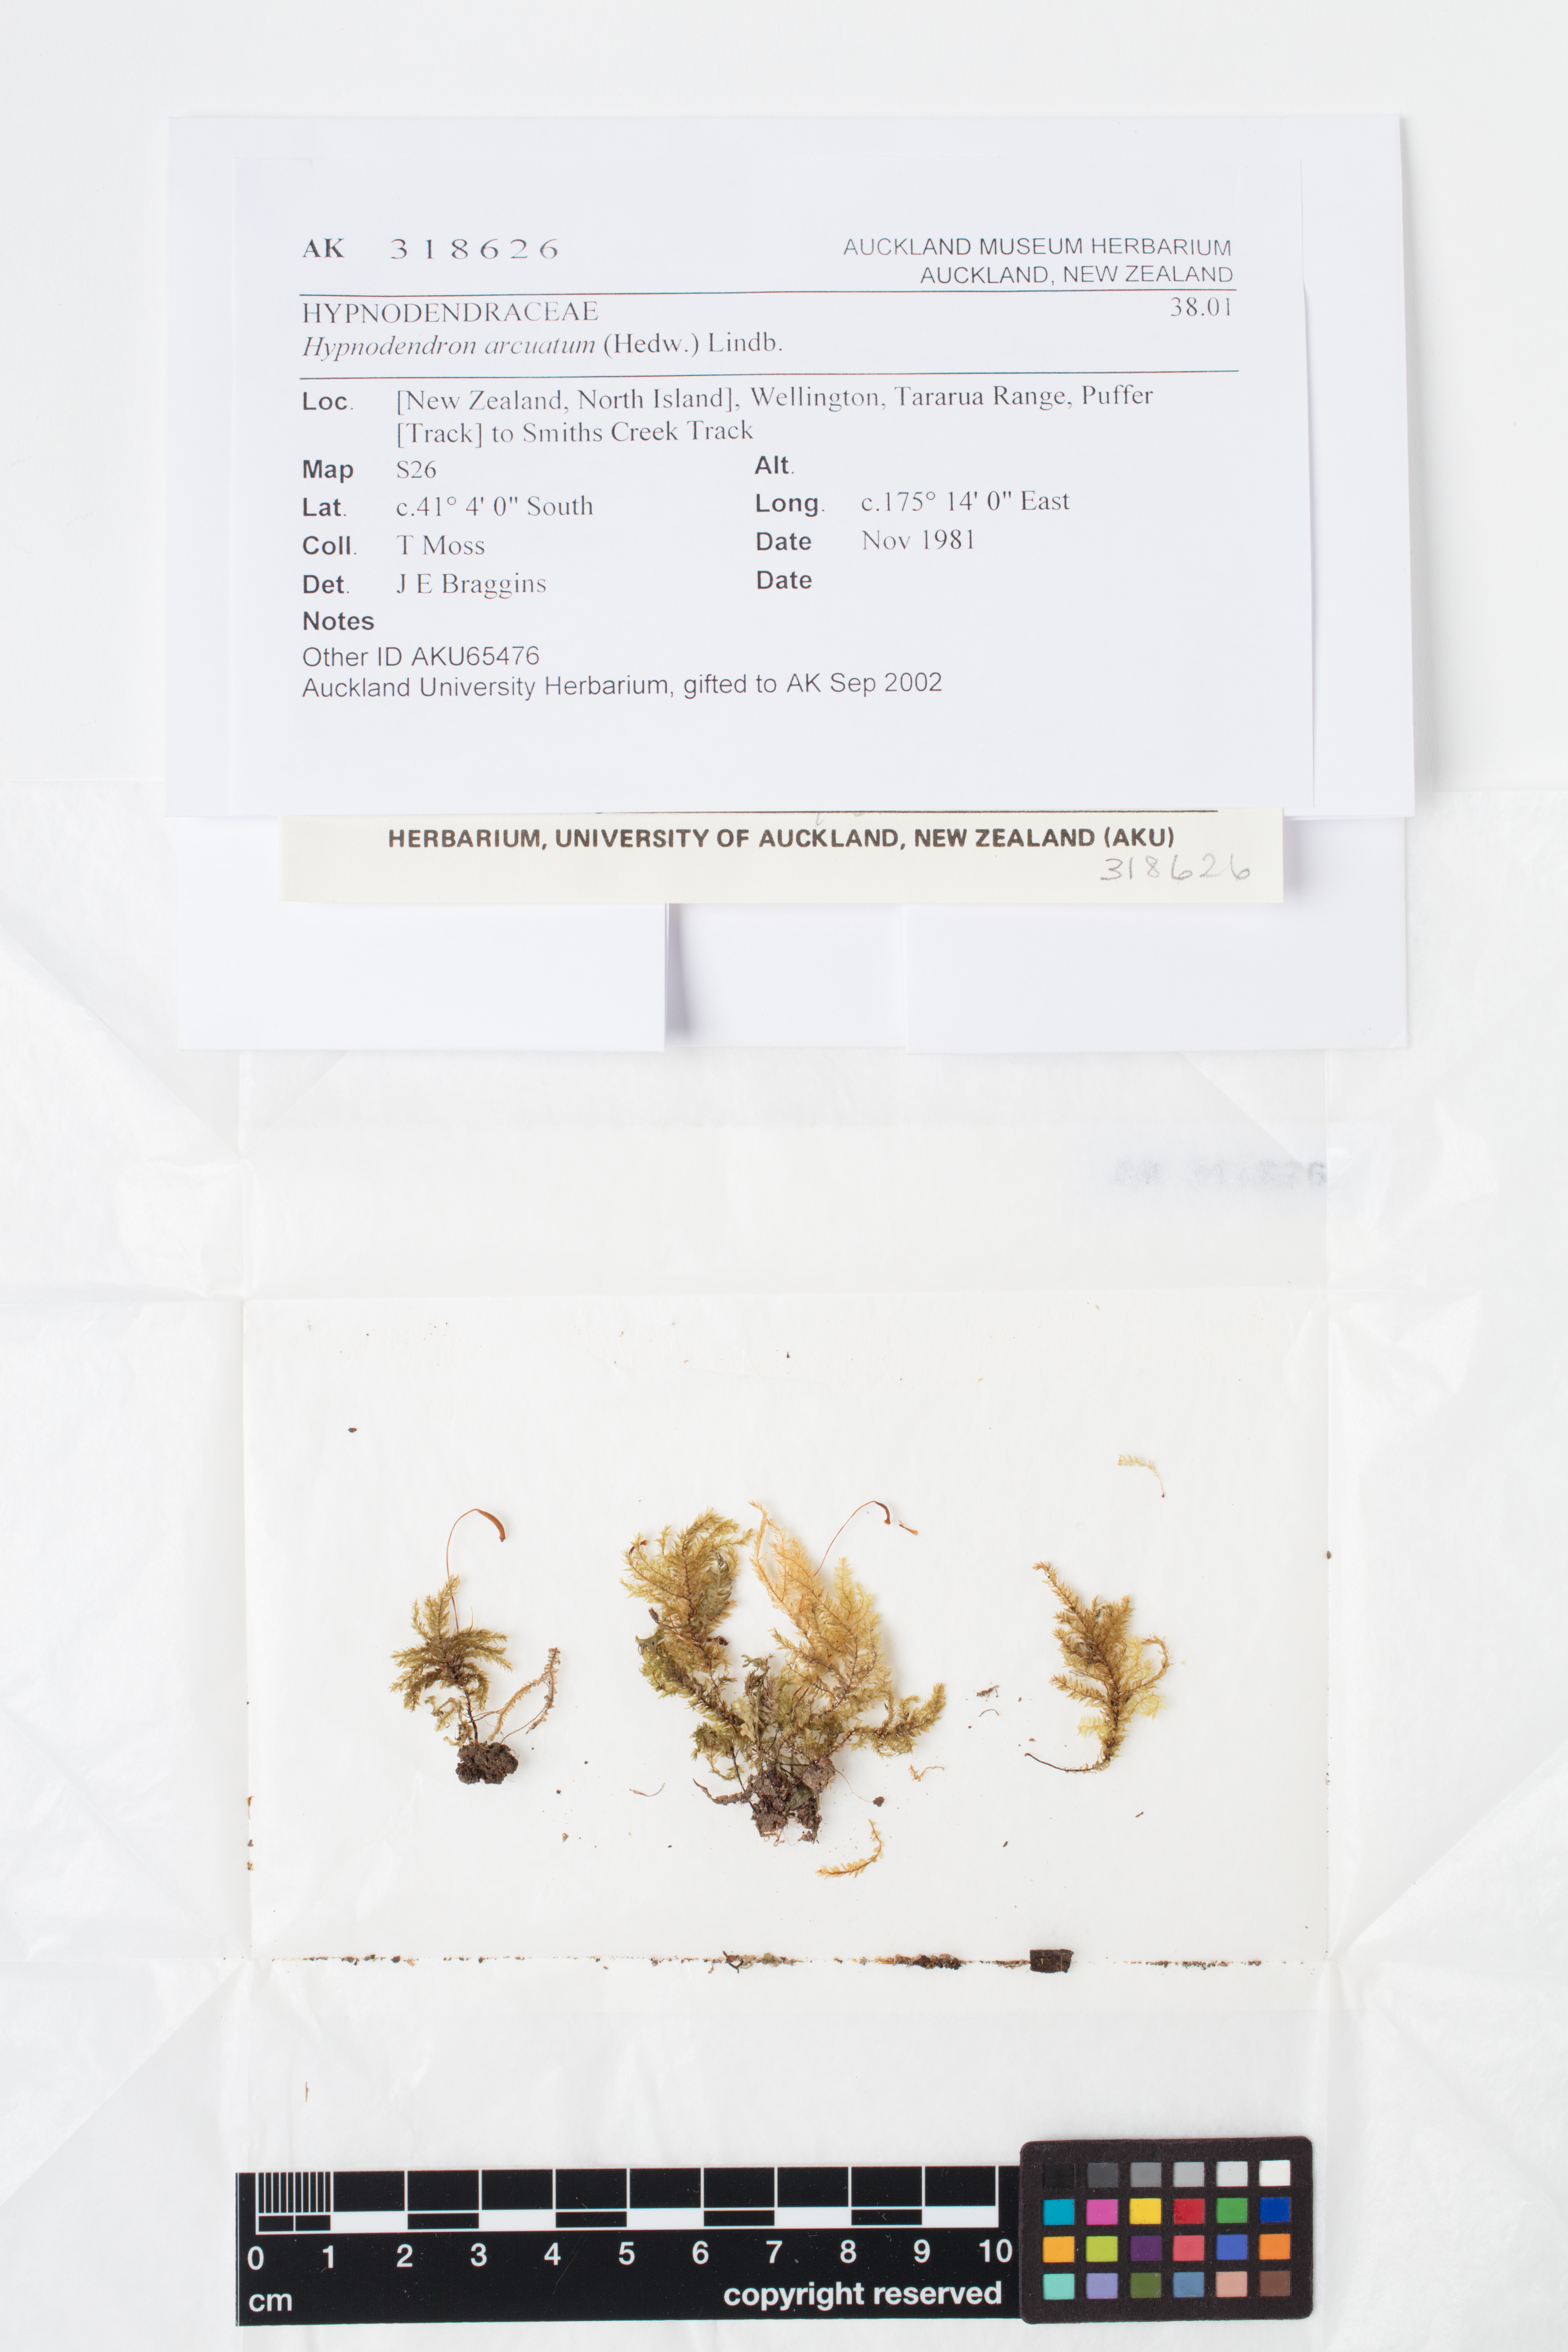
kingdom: Plantae
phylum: Bryophyta
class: Bryopsida
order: Hypnodendrales
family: Spiridentaceae
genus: Hypnodendron
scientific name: Hypnodendron arcuatum
